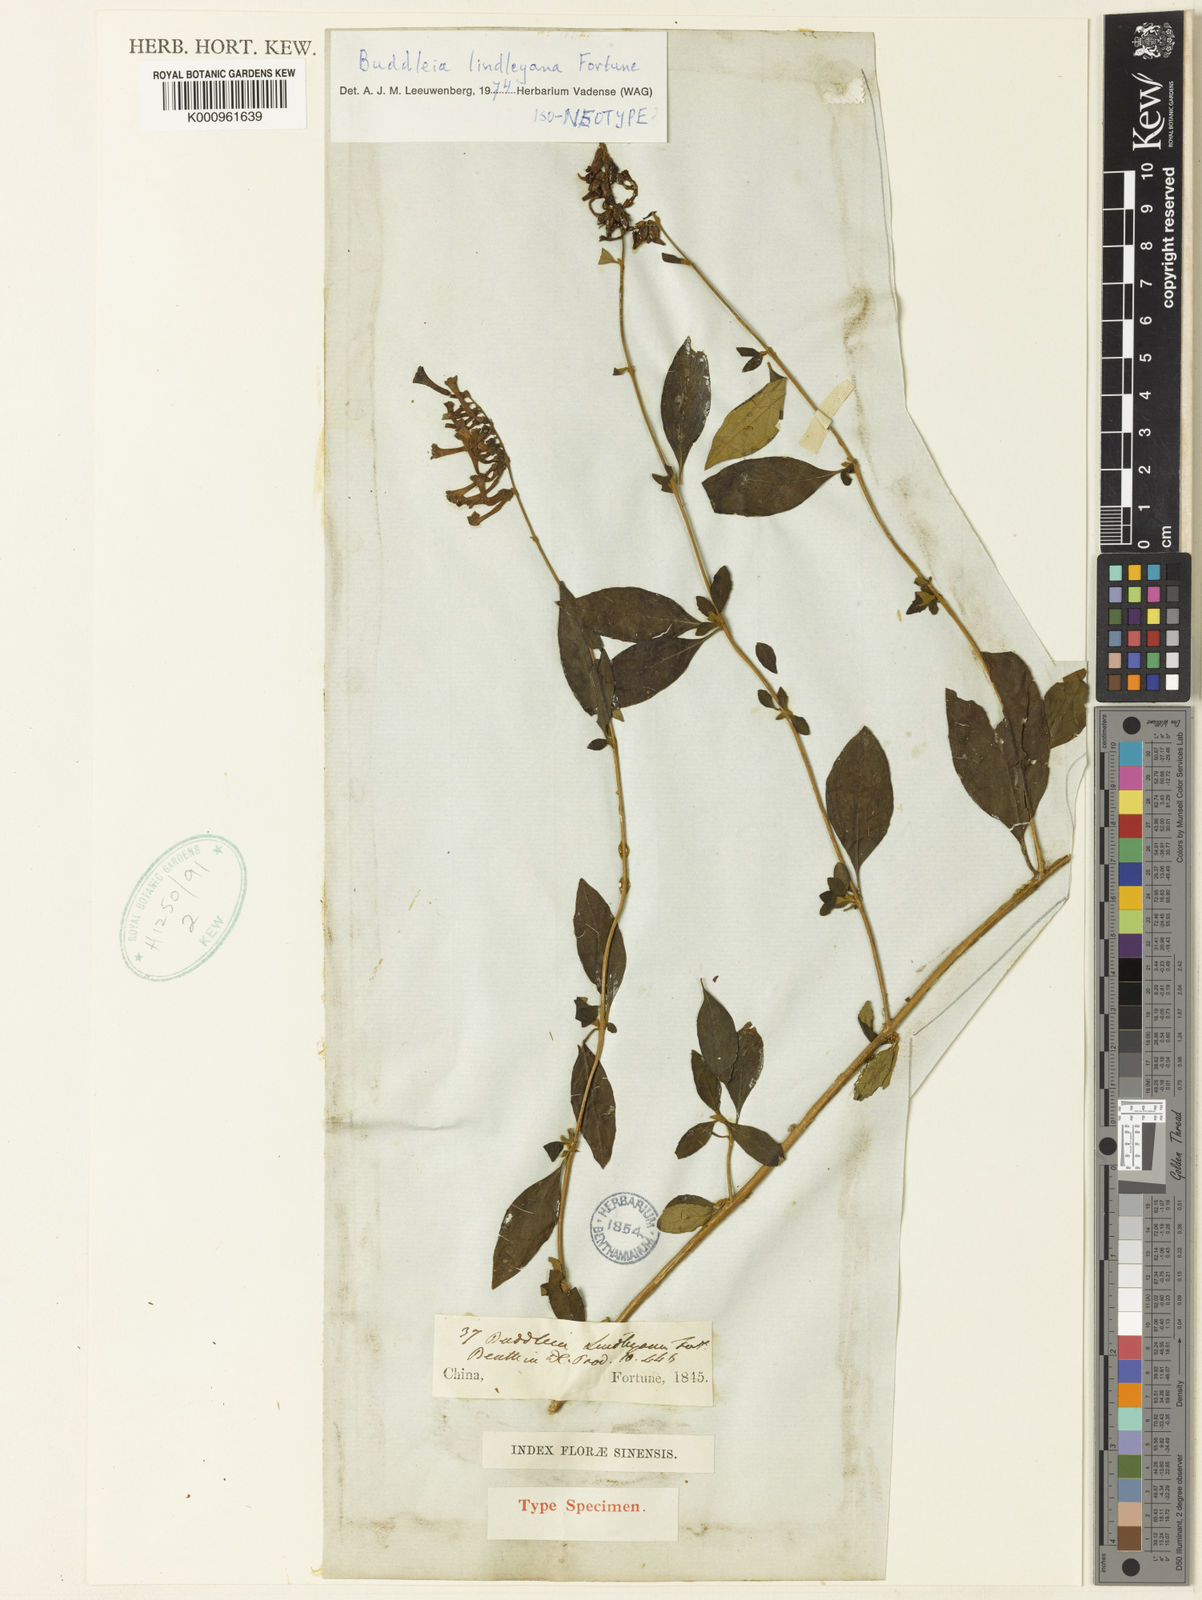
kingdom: Plantae
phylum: Tracheophyta
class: Magnoliopsida
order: Lamiales
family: Scrophulariaceae
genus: Buddleja
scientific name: Buddleja lindleyana
